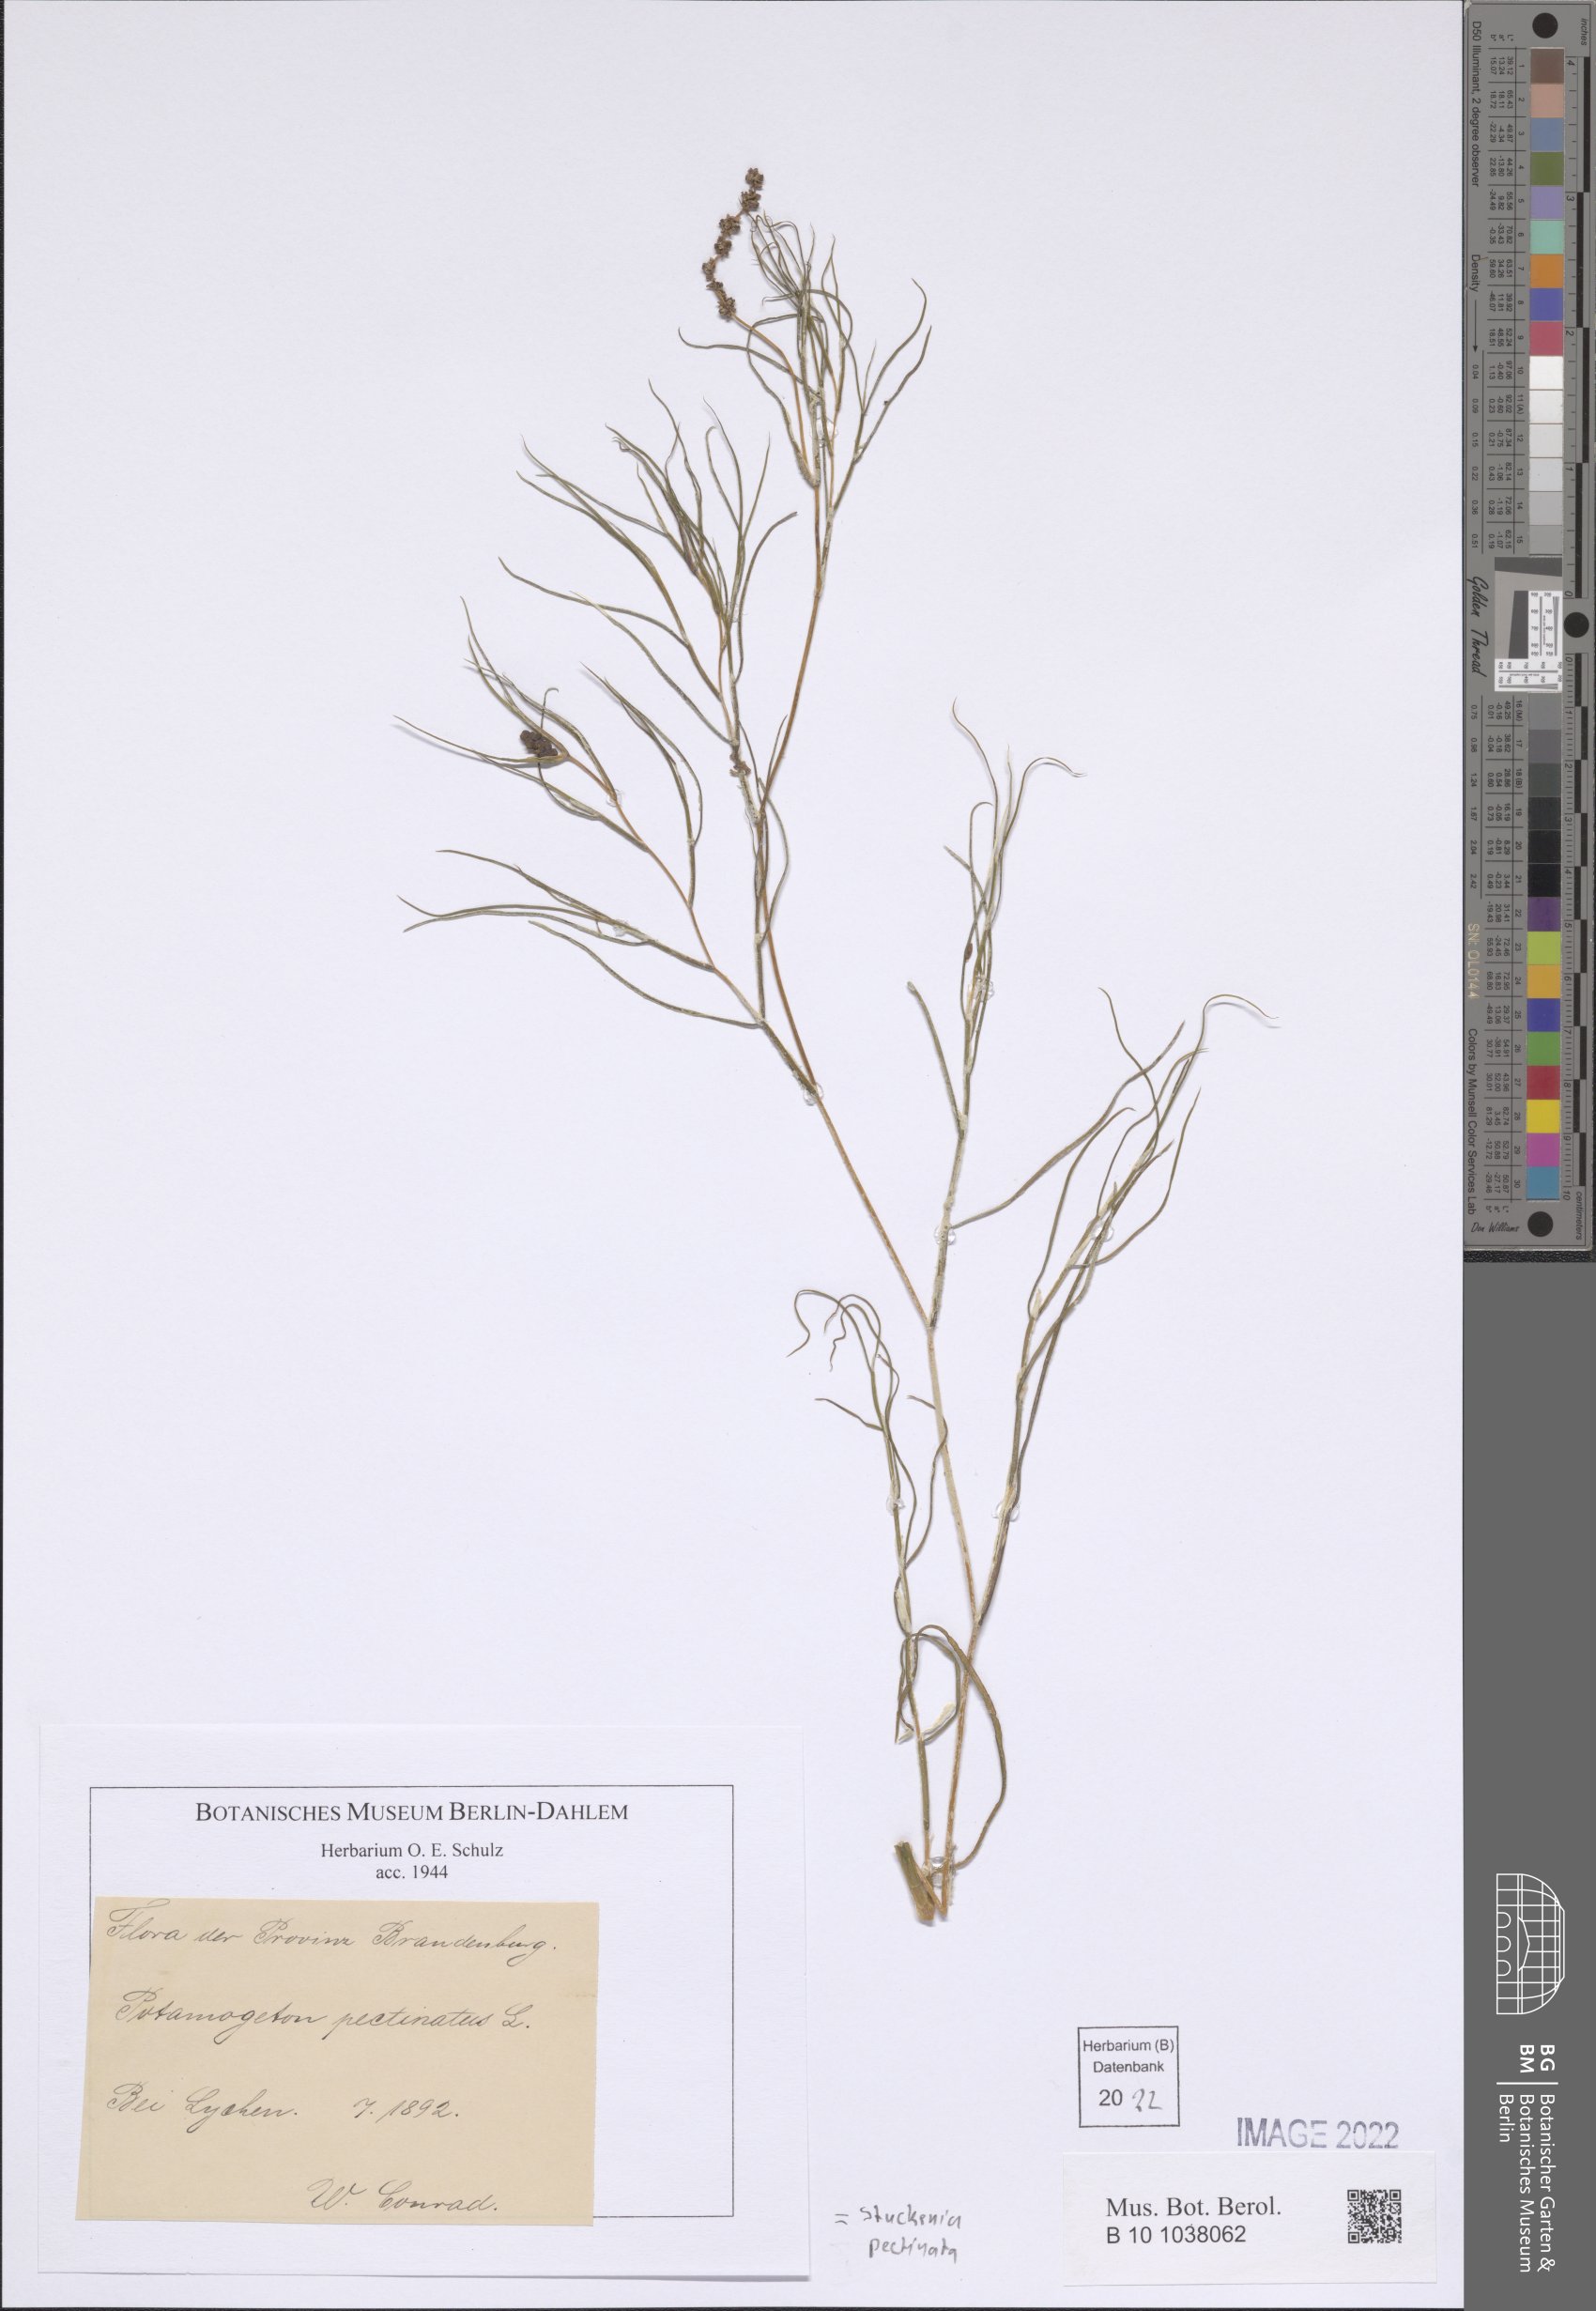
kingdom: Plantae
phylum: Tracheophyta
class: Liliopsida
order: Alismatales
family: Potamogetonaceae
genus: Stuckenia
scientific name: Stuckenia pectinata
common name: Sago pondweed
